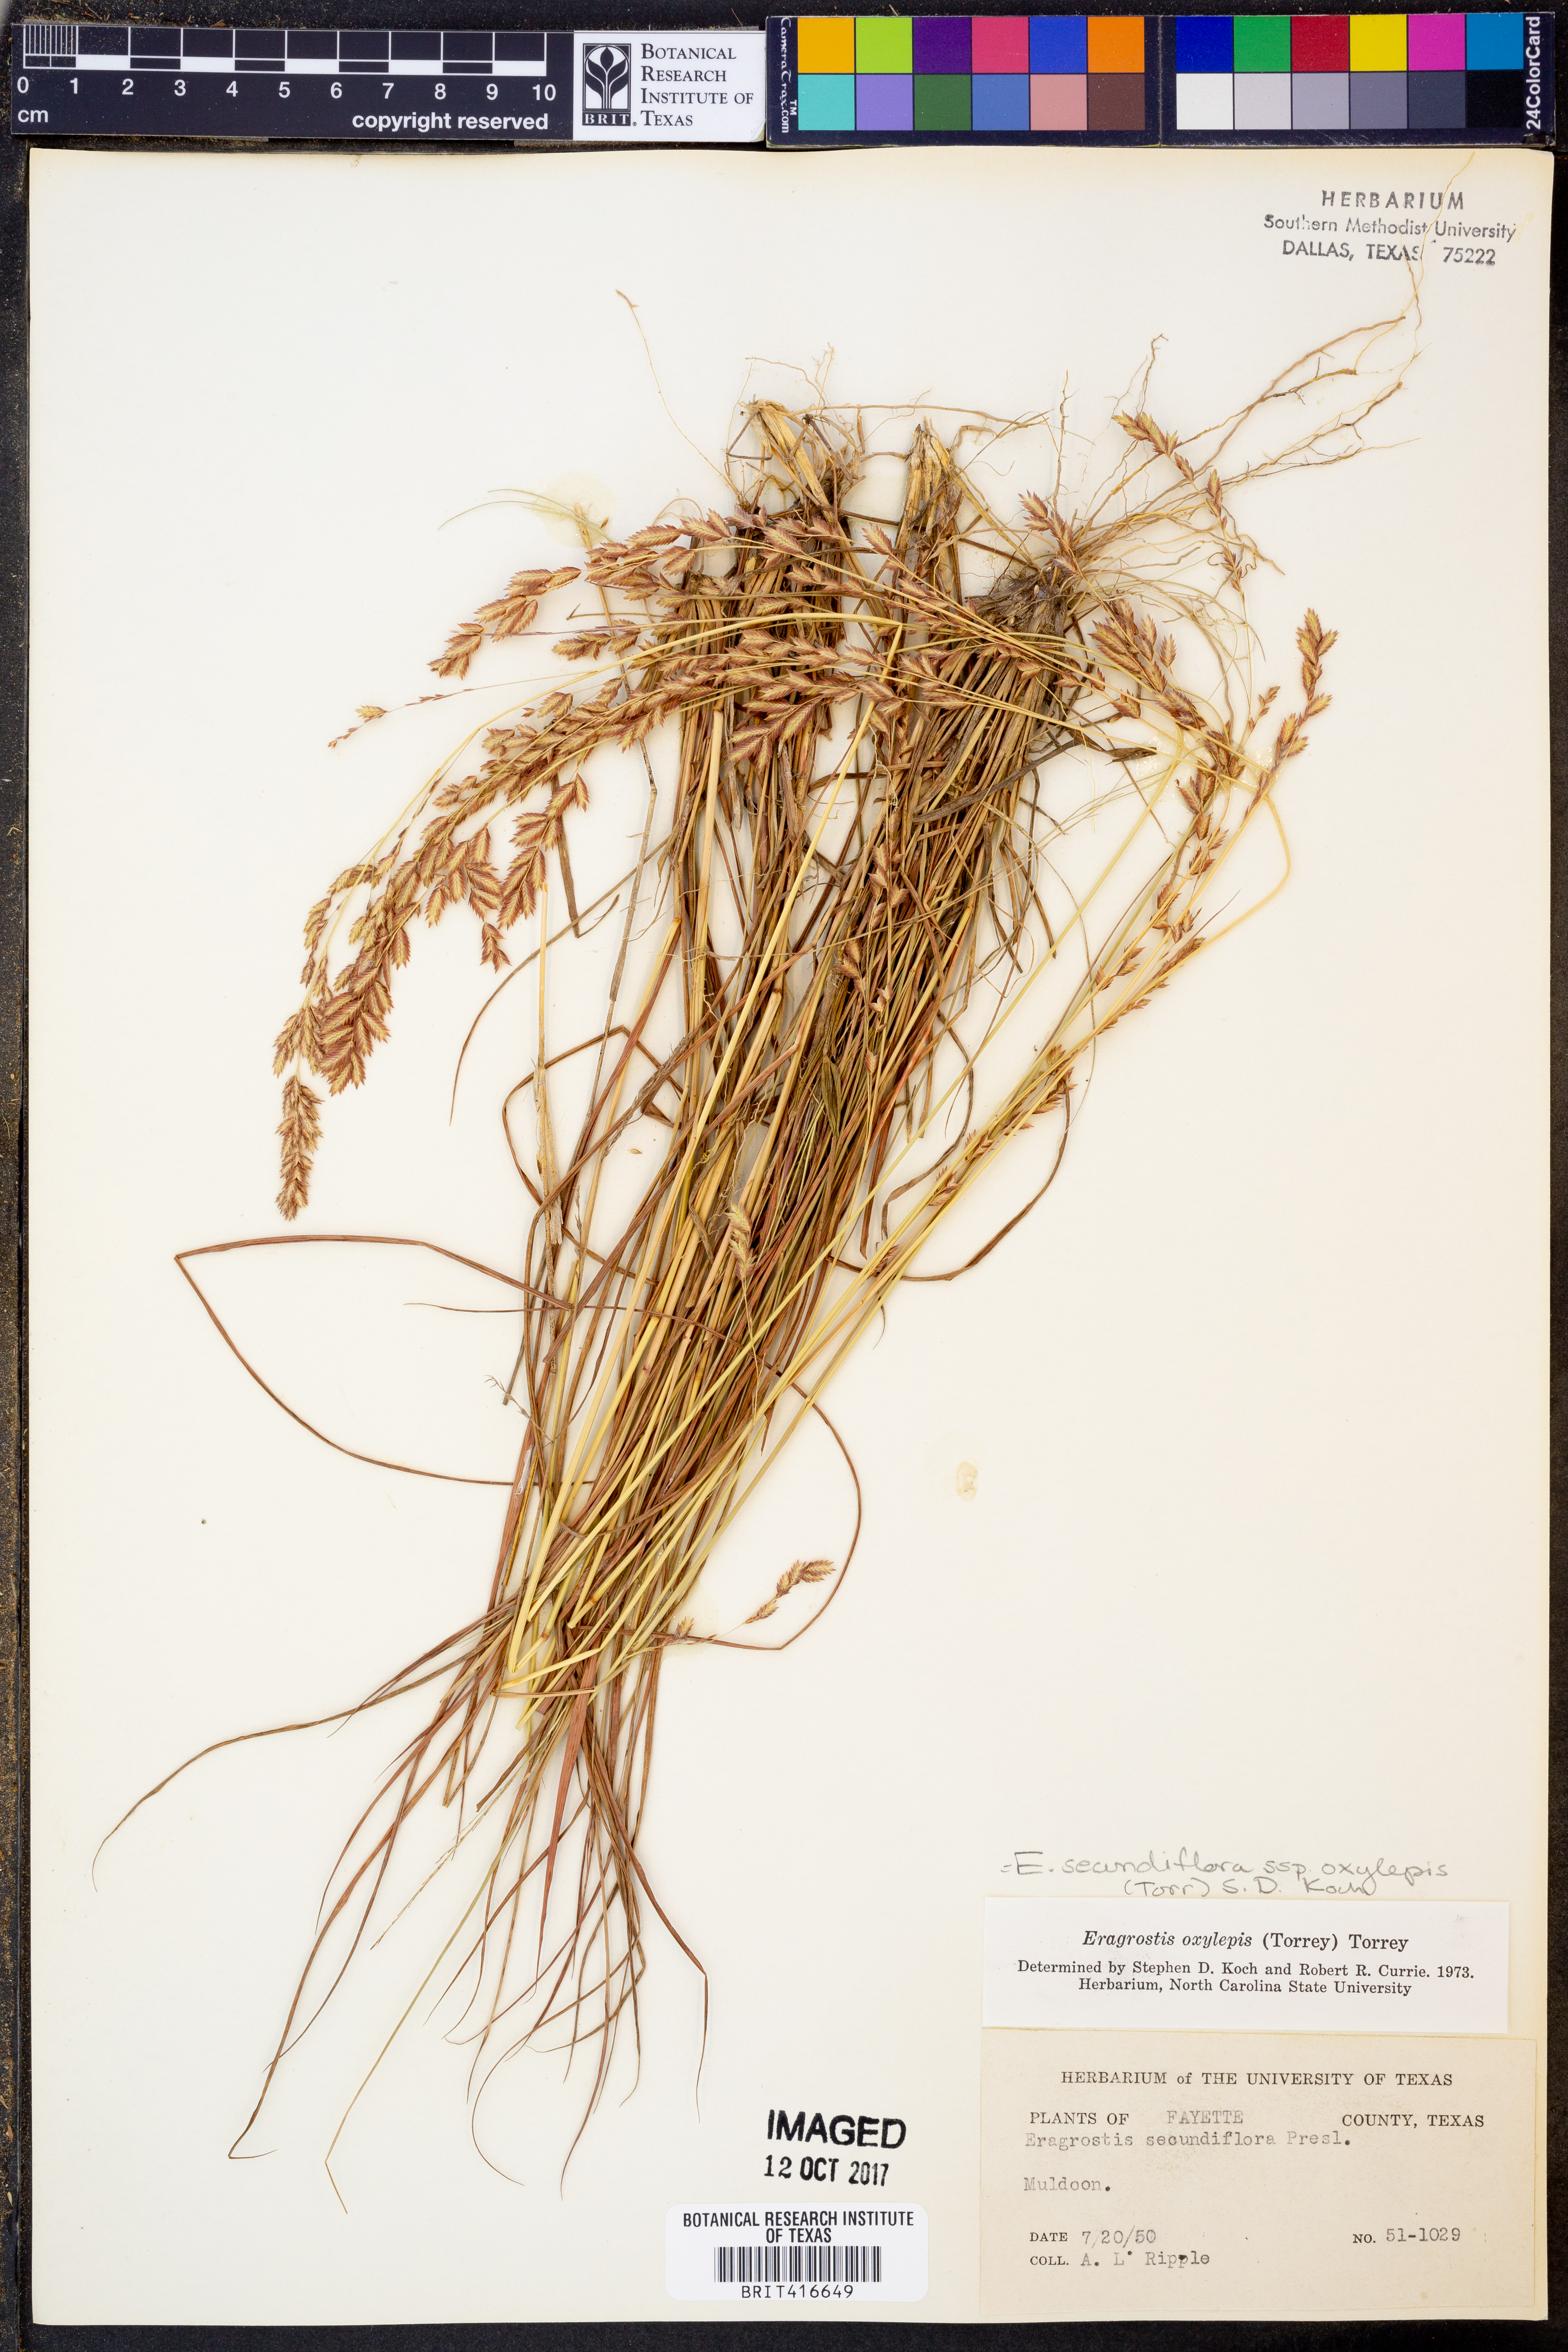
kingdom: Plantae
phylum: Tracheophyta
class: Liliopsida
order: Poales
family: Poaceae
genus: Eragrostis
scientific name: Eragrostis secundiflora
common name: Red love grass
